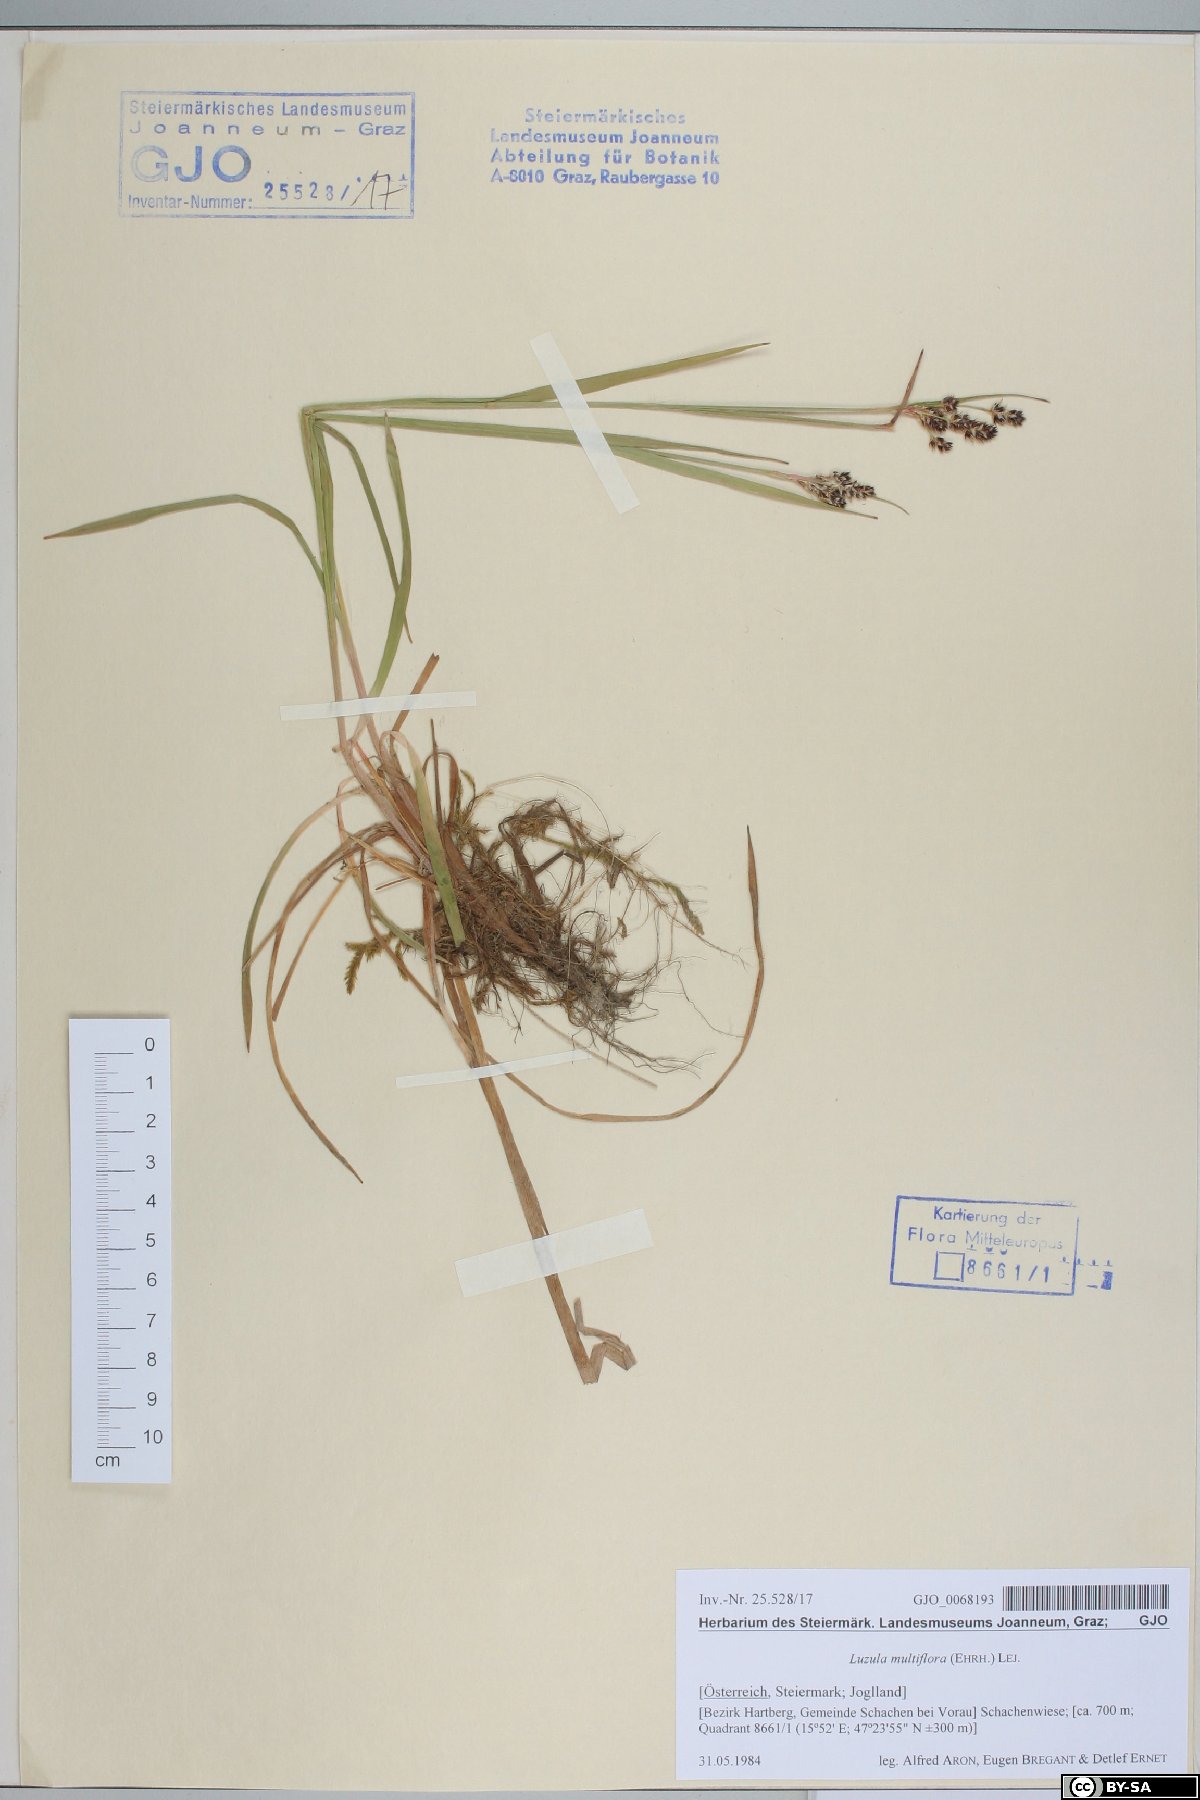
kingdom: Plantae
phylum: Tracheophyta
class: Liliopsida
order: Poales
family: Juncaceae
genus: Luzula
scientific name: Luzula multiflora
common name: Heath wood-rush
